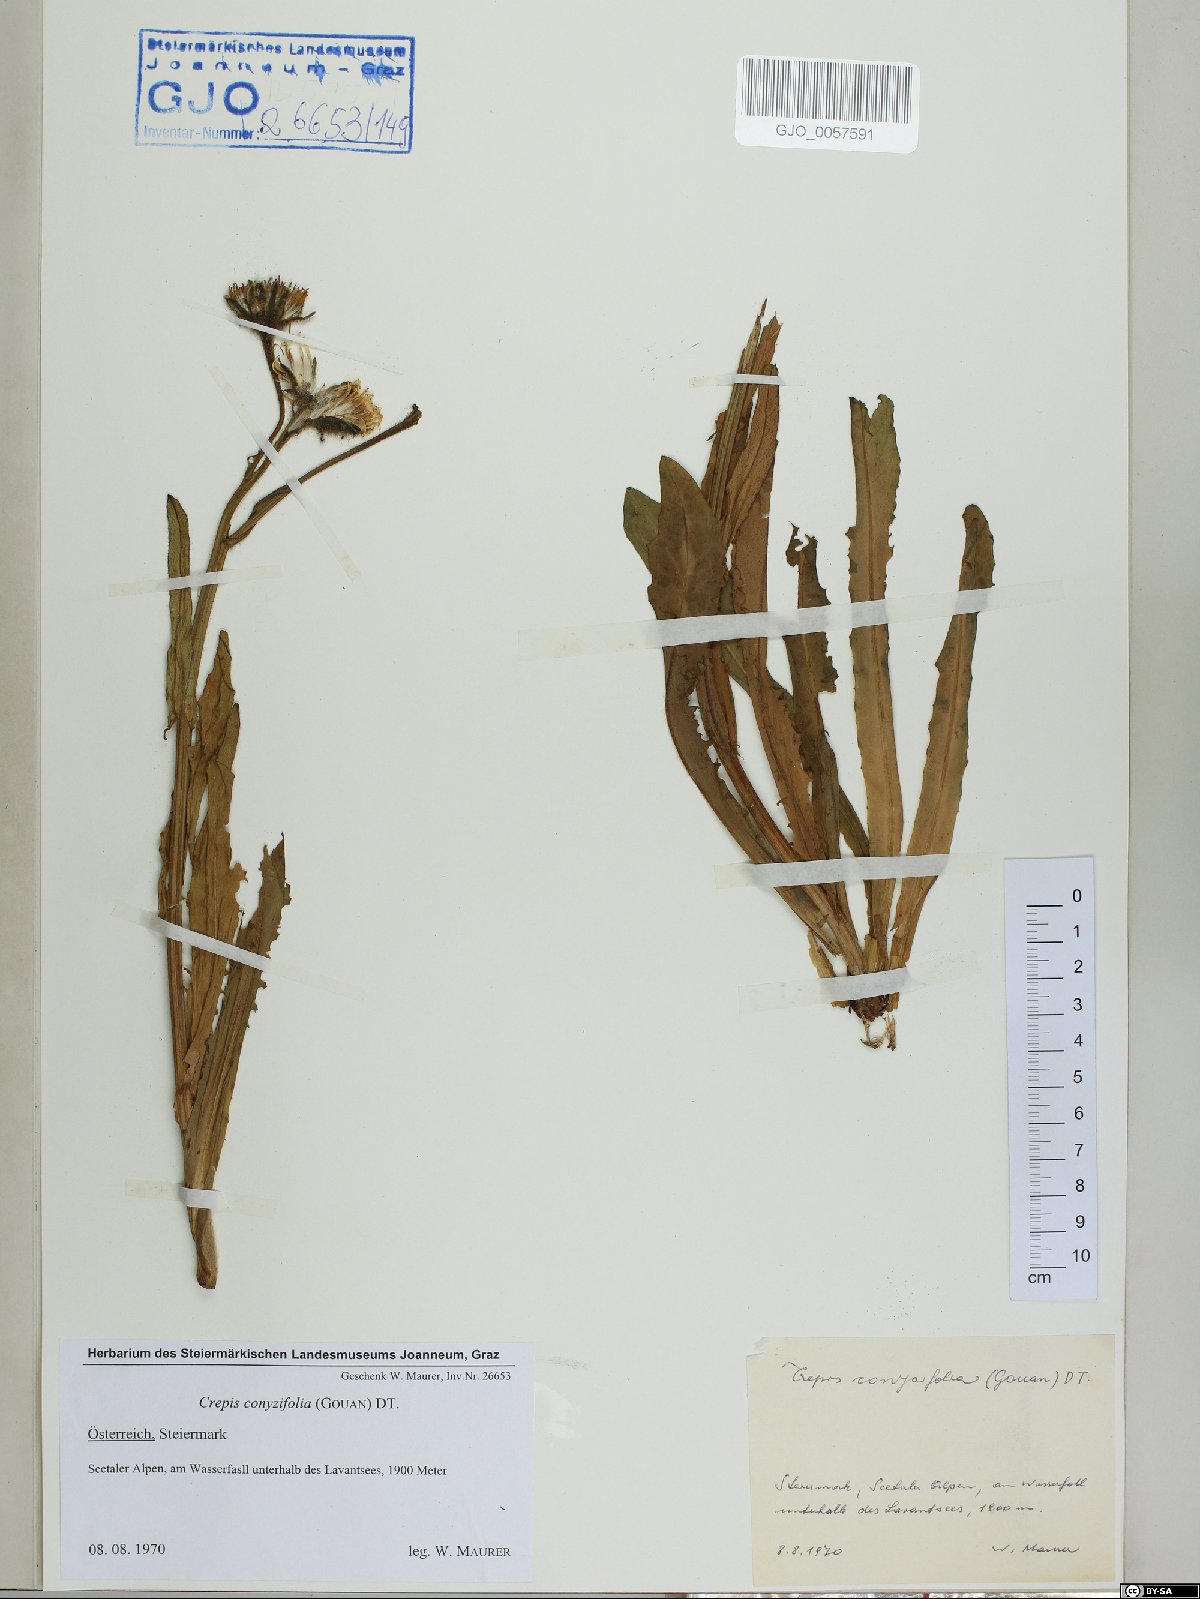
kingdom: Plantae
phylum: Tracheophyta
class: Magnoliopsida
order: Asterales
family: Asteraceae
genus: Crepis
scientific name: Crepis blattarioides
